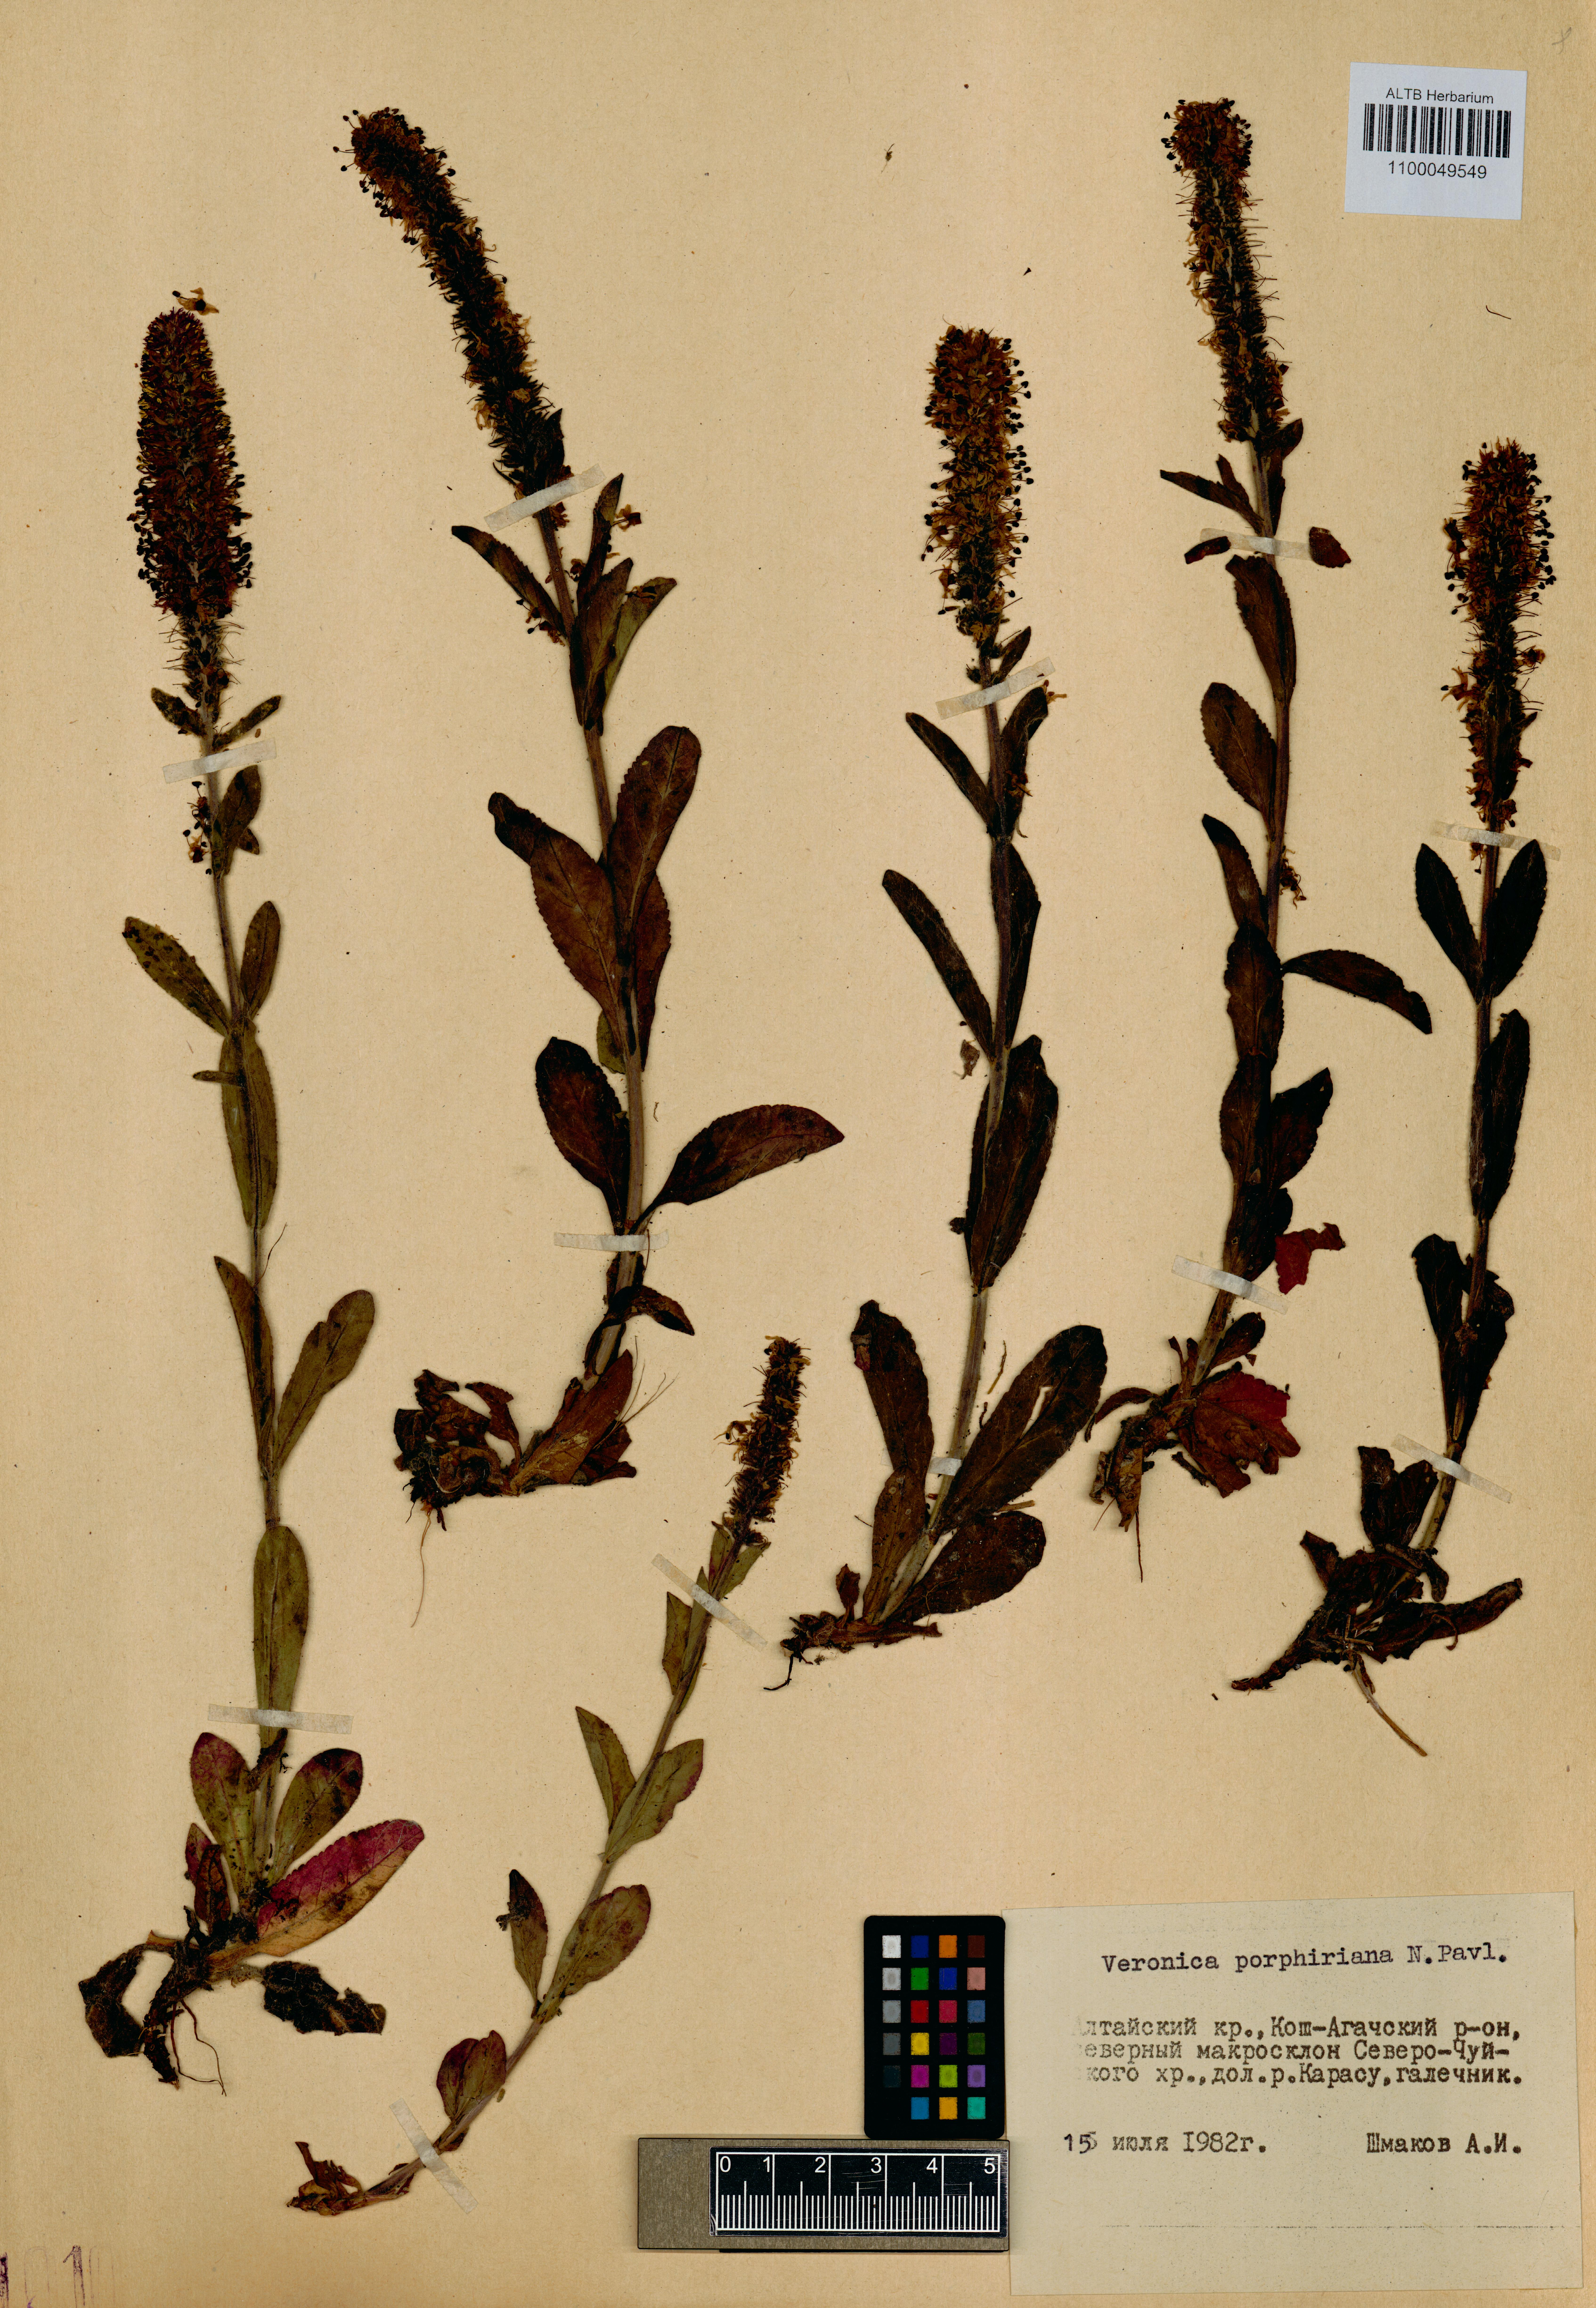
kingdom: Plantae
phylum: Tracheophyta
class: Magnoliopsida
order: Lamiales
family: Plantaginaceae
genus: Veronica
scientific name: Veronica porphyriana
